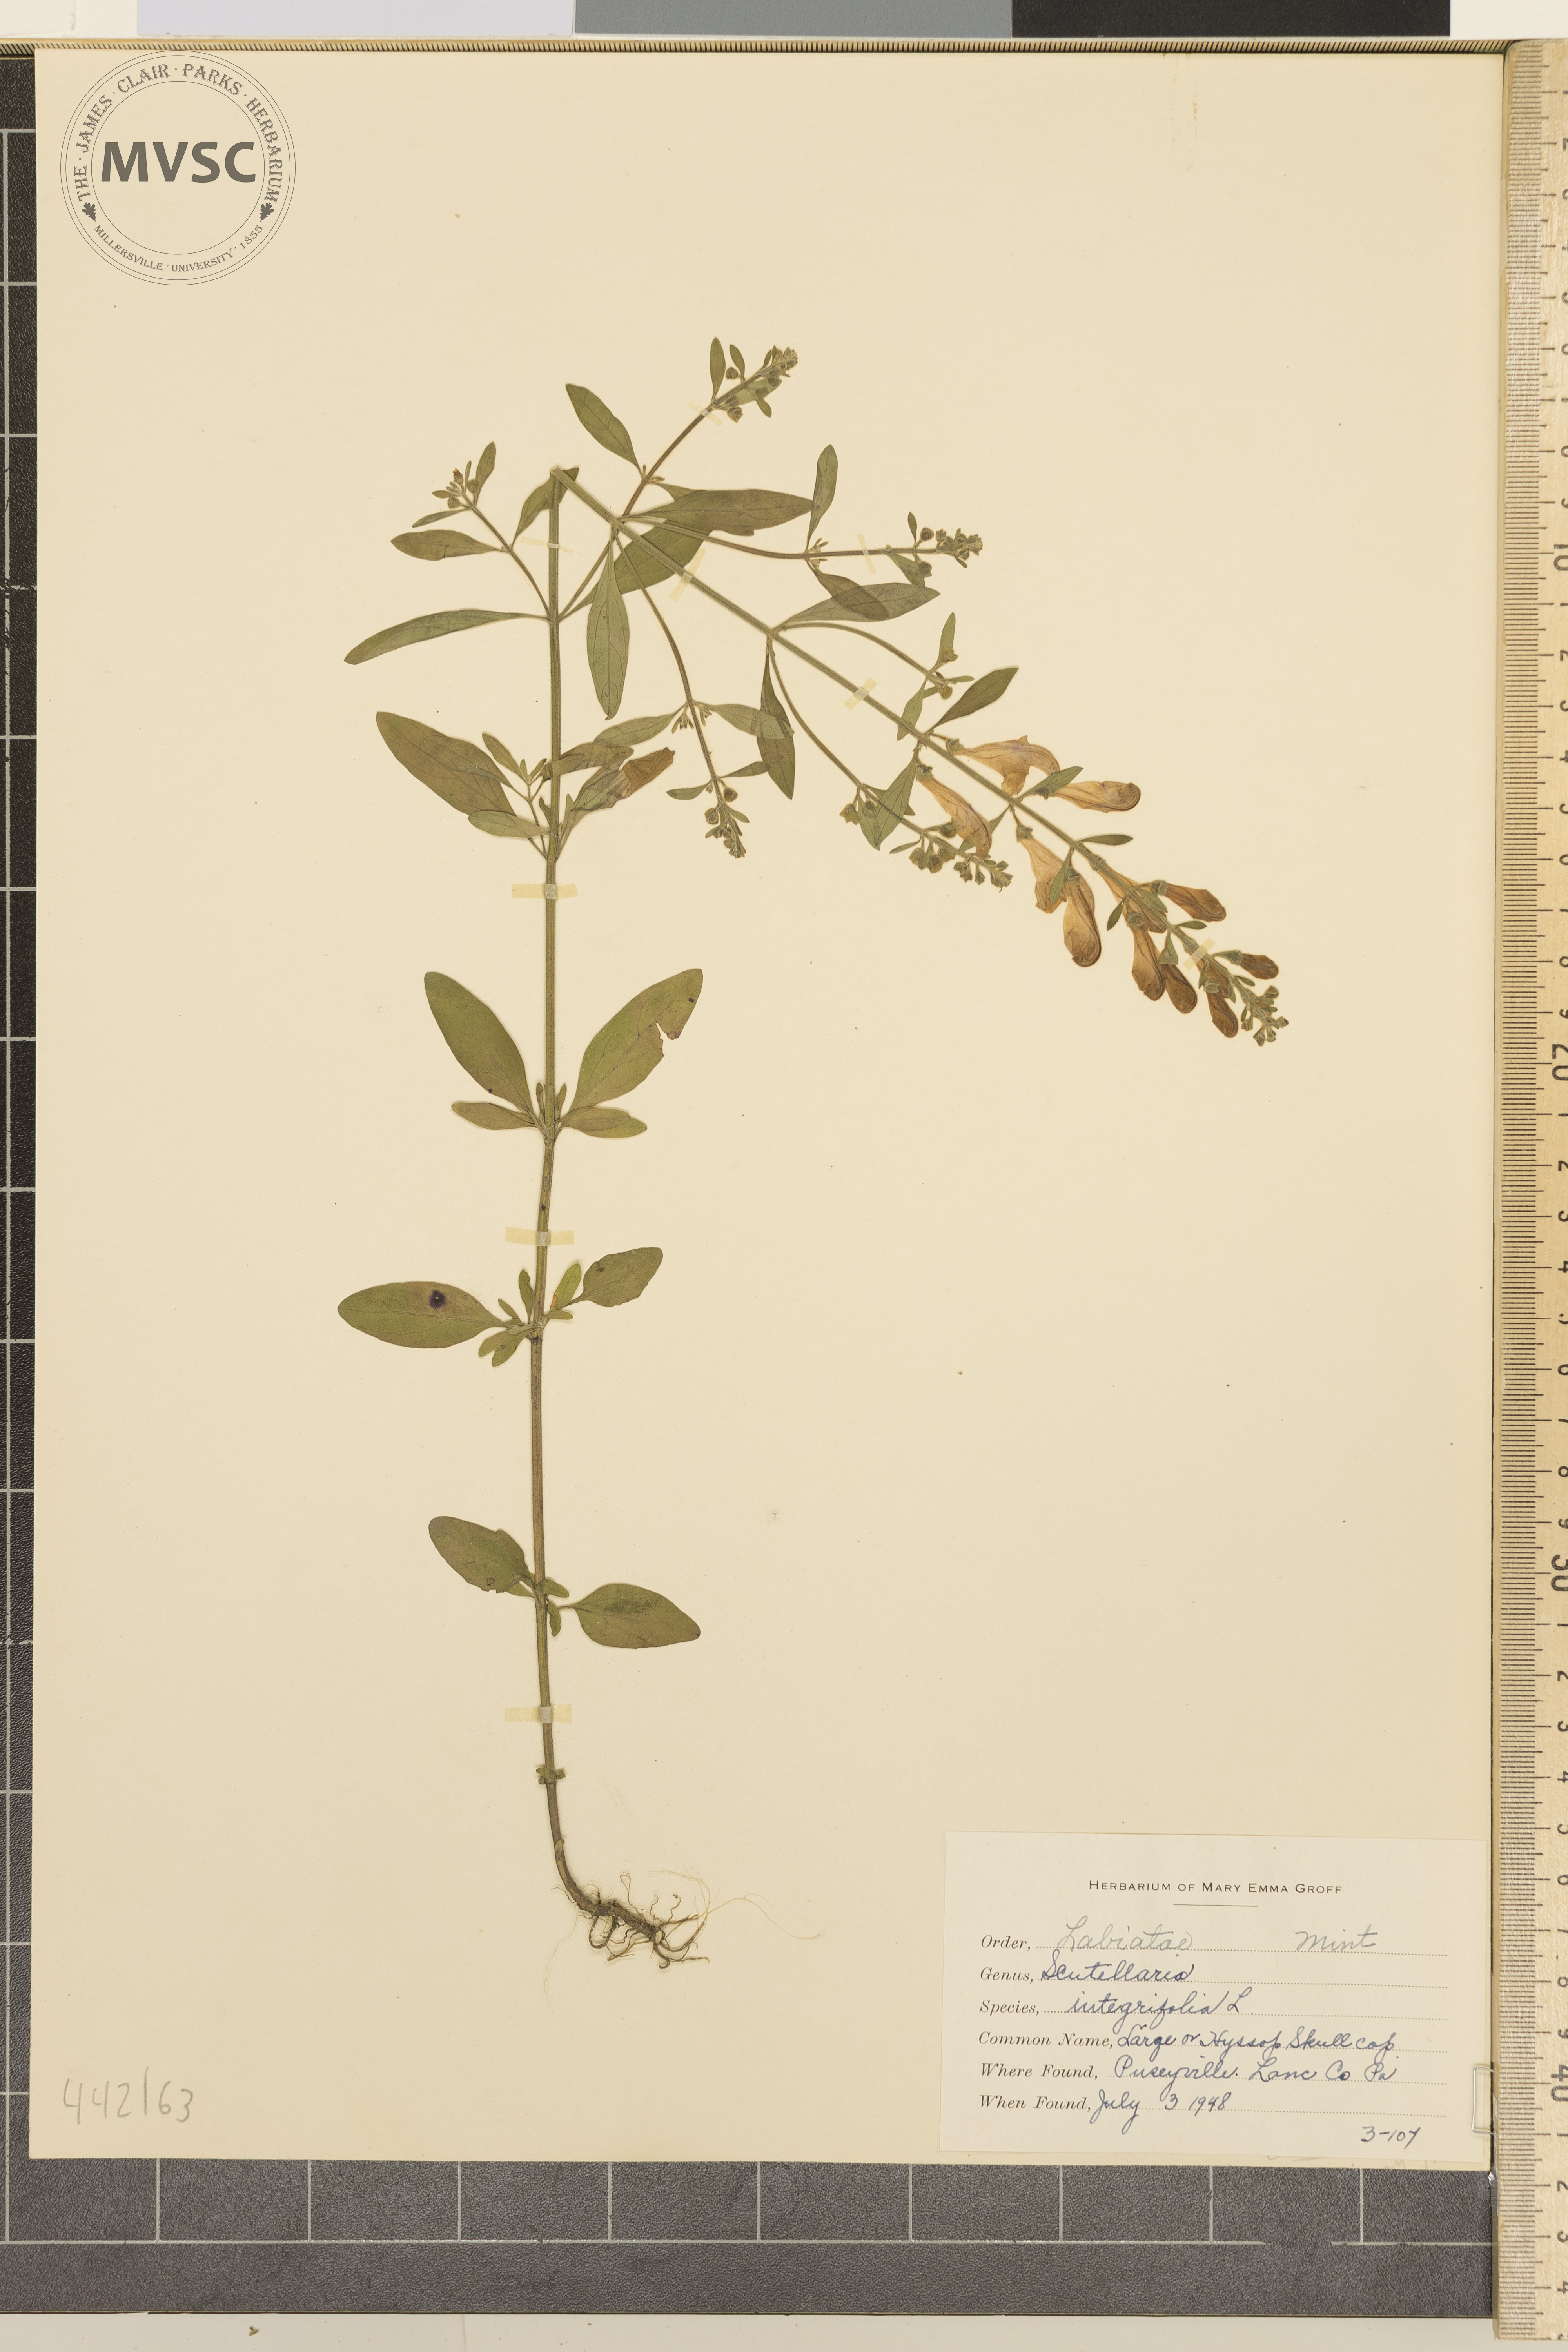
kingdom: Plantae
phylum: Tracheophyta
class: Magnoliopsida
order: Lamiales
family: Lamiaceae
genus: Scutellaria
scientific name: Scutellaria integrifolia
